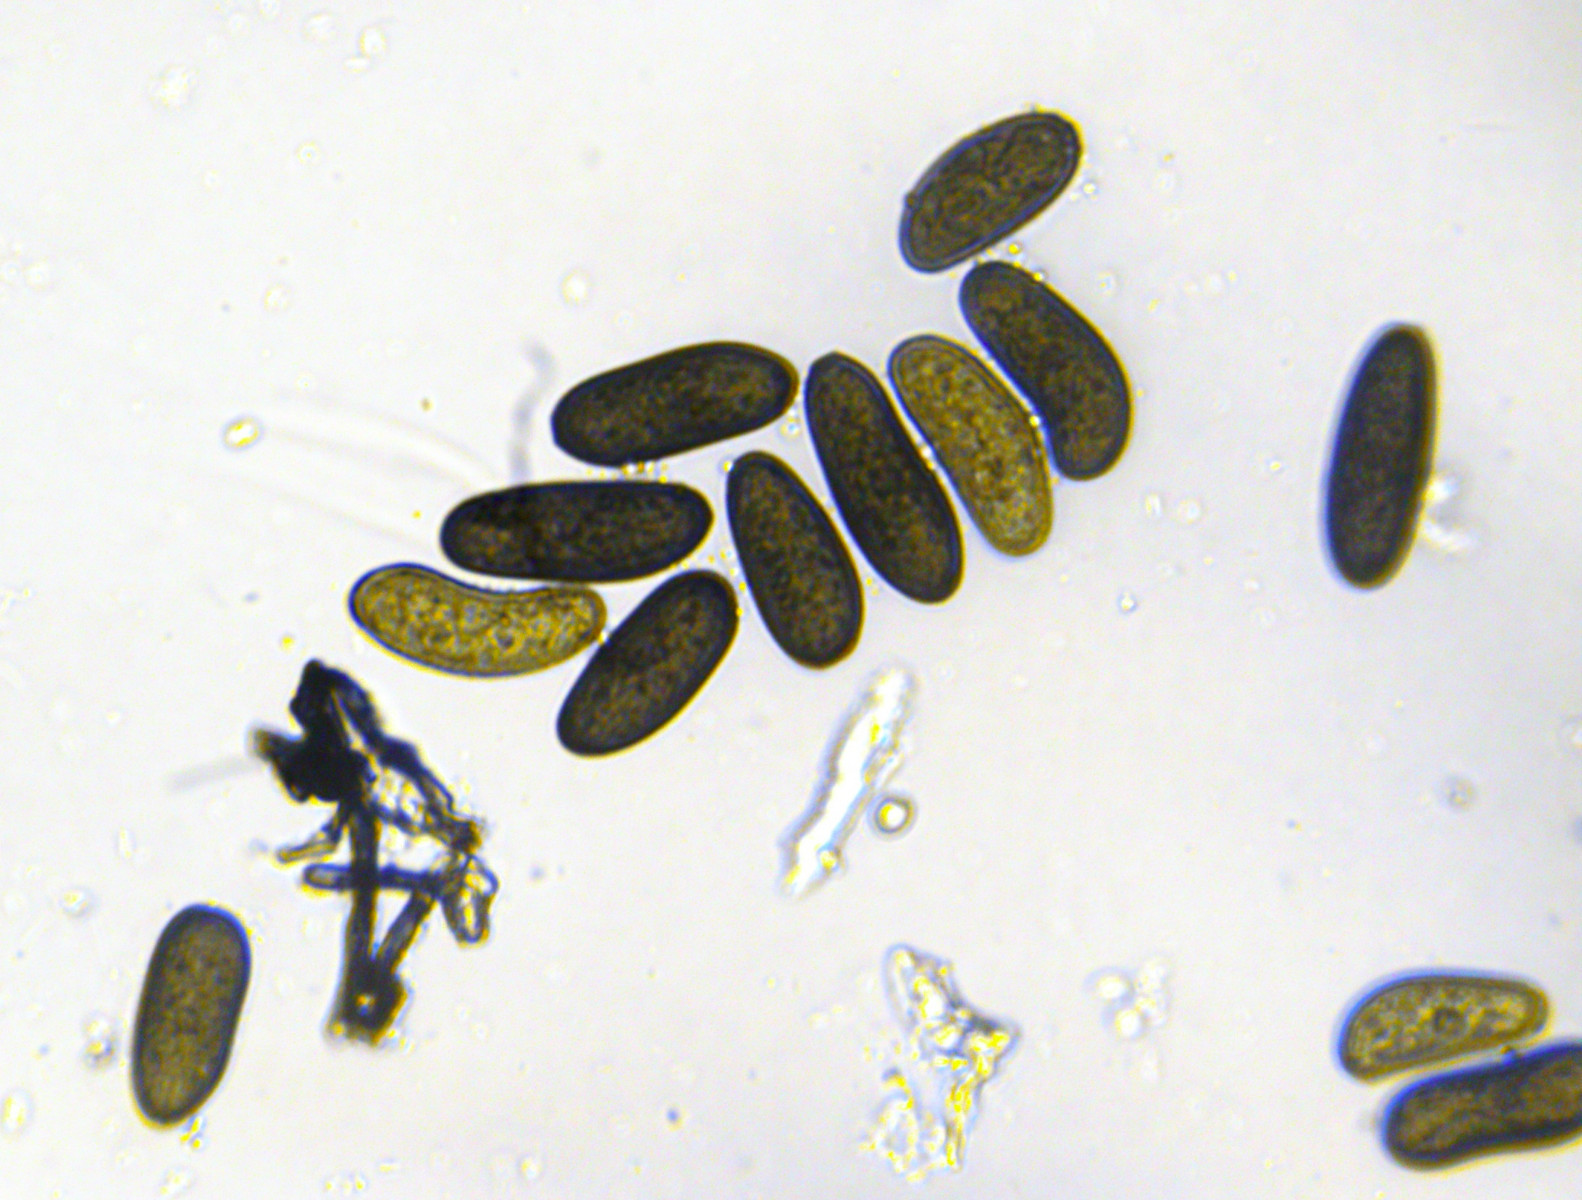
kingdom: Fungi
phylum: Ascomycota
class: Dothideomycetes
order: Botryosphaeriales
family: Botryosphaeriaceae
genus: Sphaeropsis
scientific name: Sphaeropsis sapinea
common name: Sphaeropsis blight
